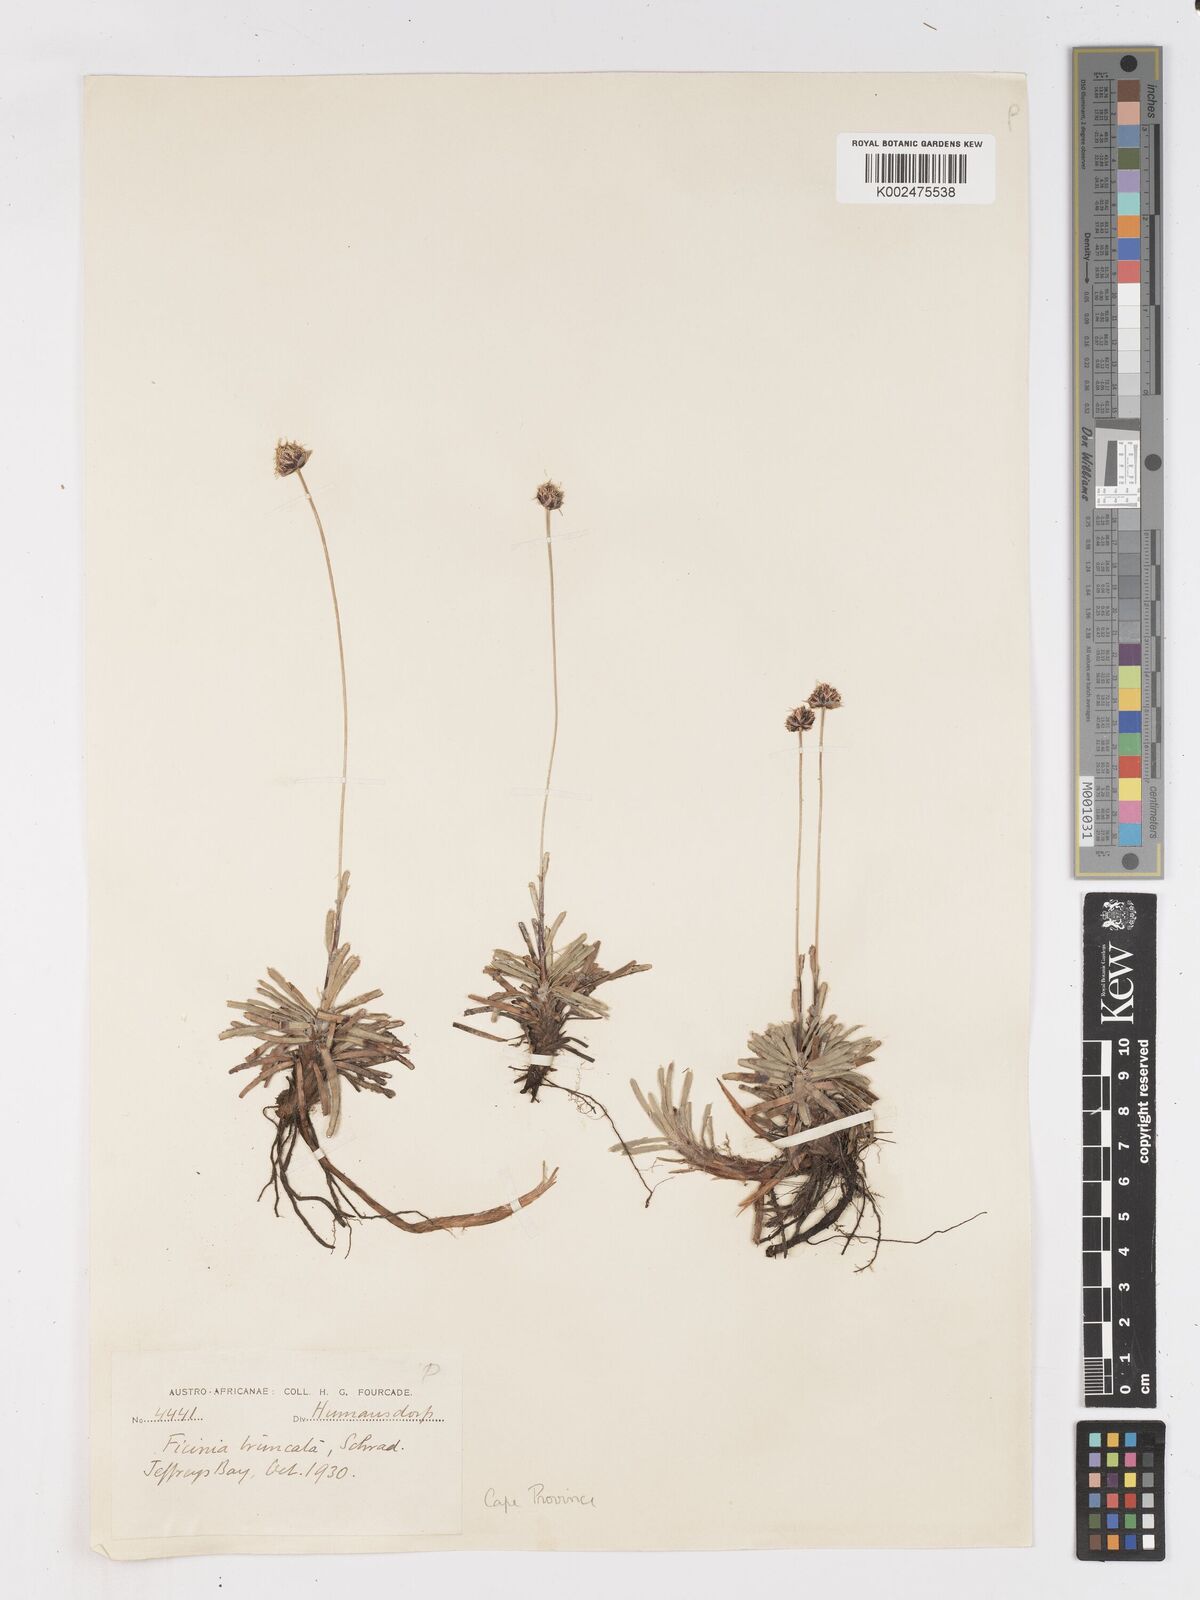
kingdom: Plantae
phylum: Tracheophyta
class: Liliopsida
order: Poales
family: Cyperaceae
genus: Ficinia
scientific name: Ficinia truncata
